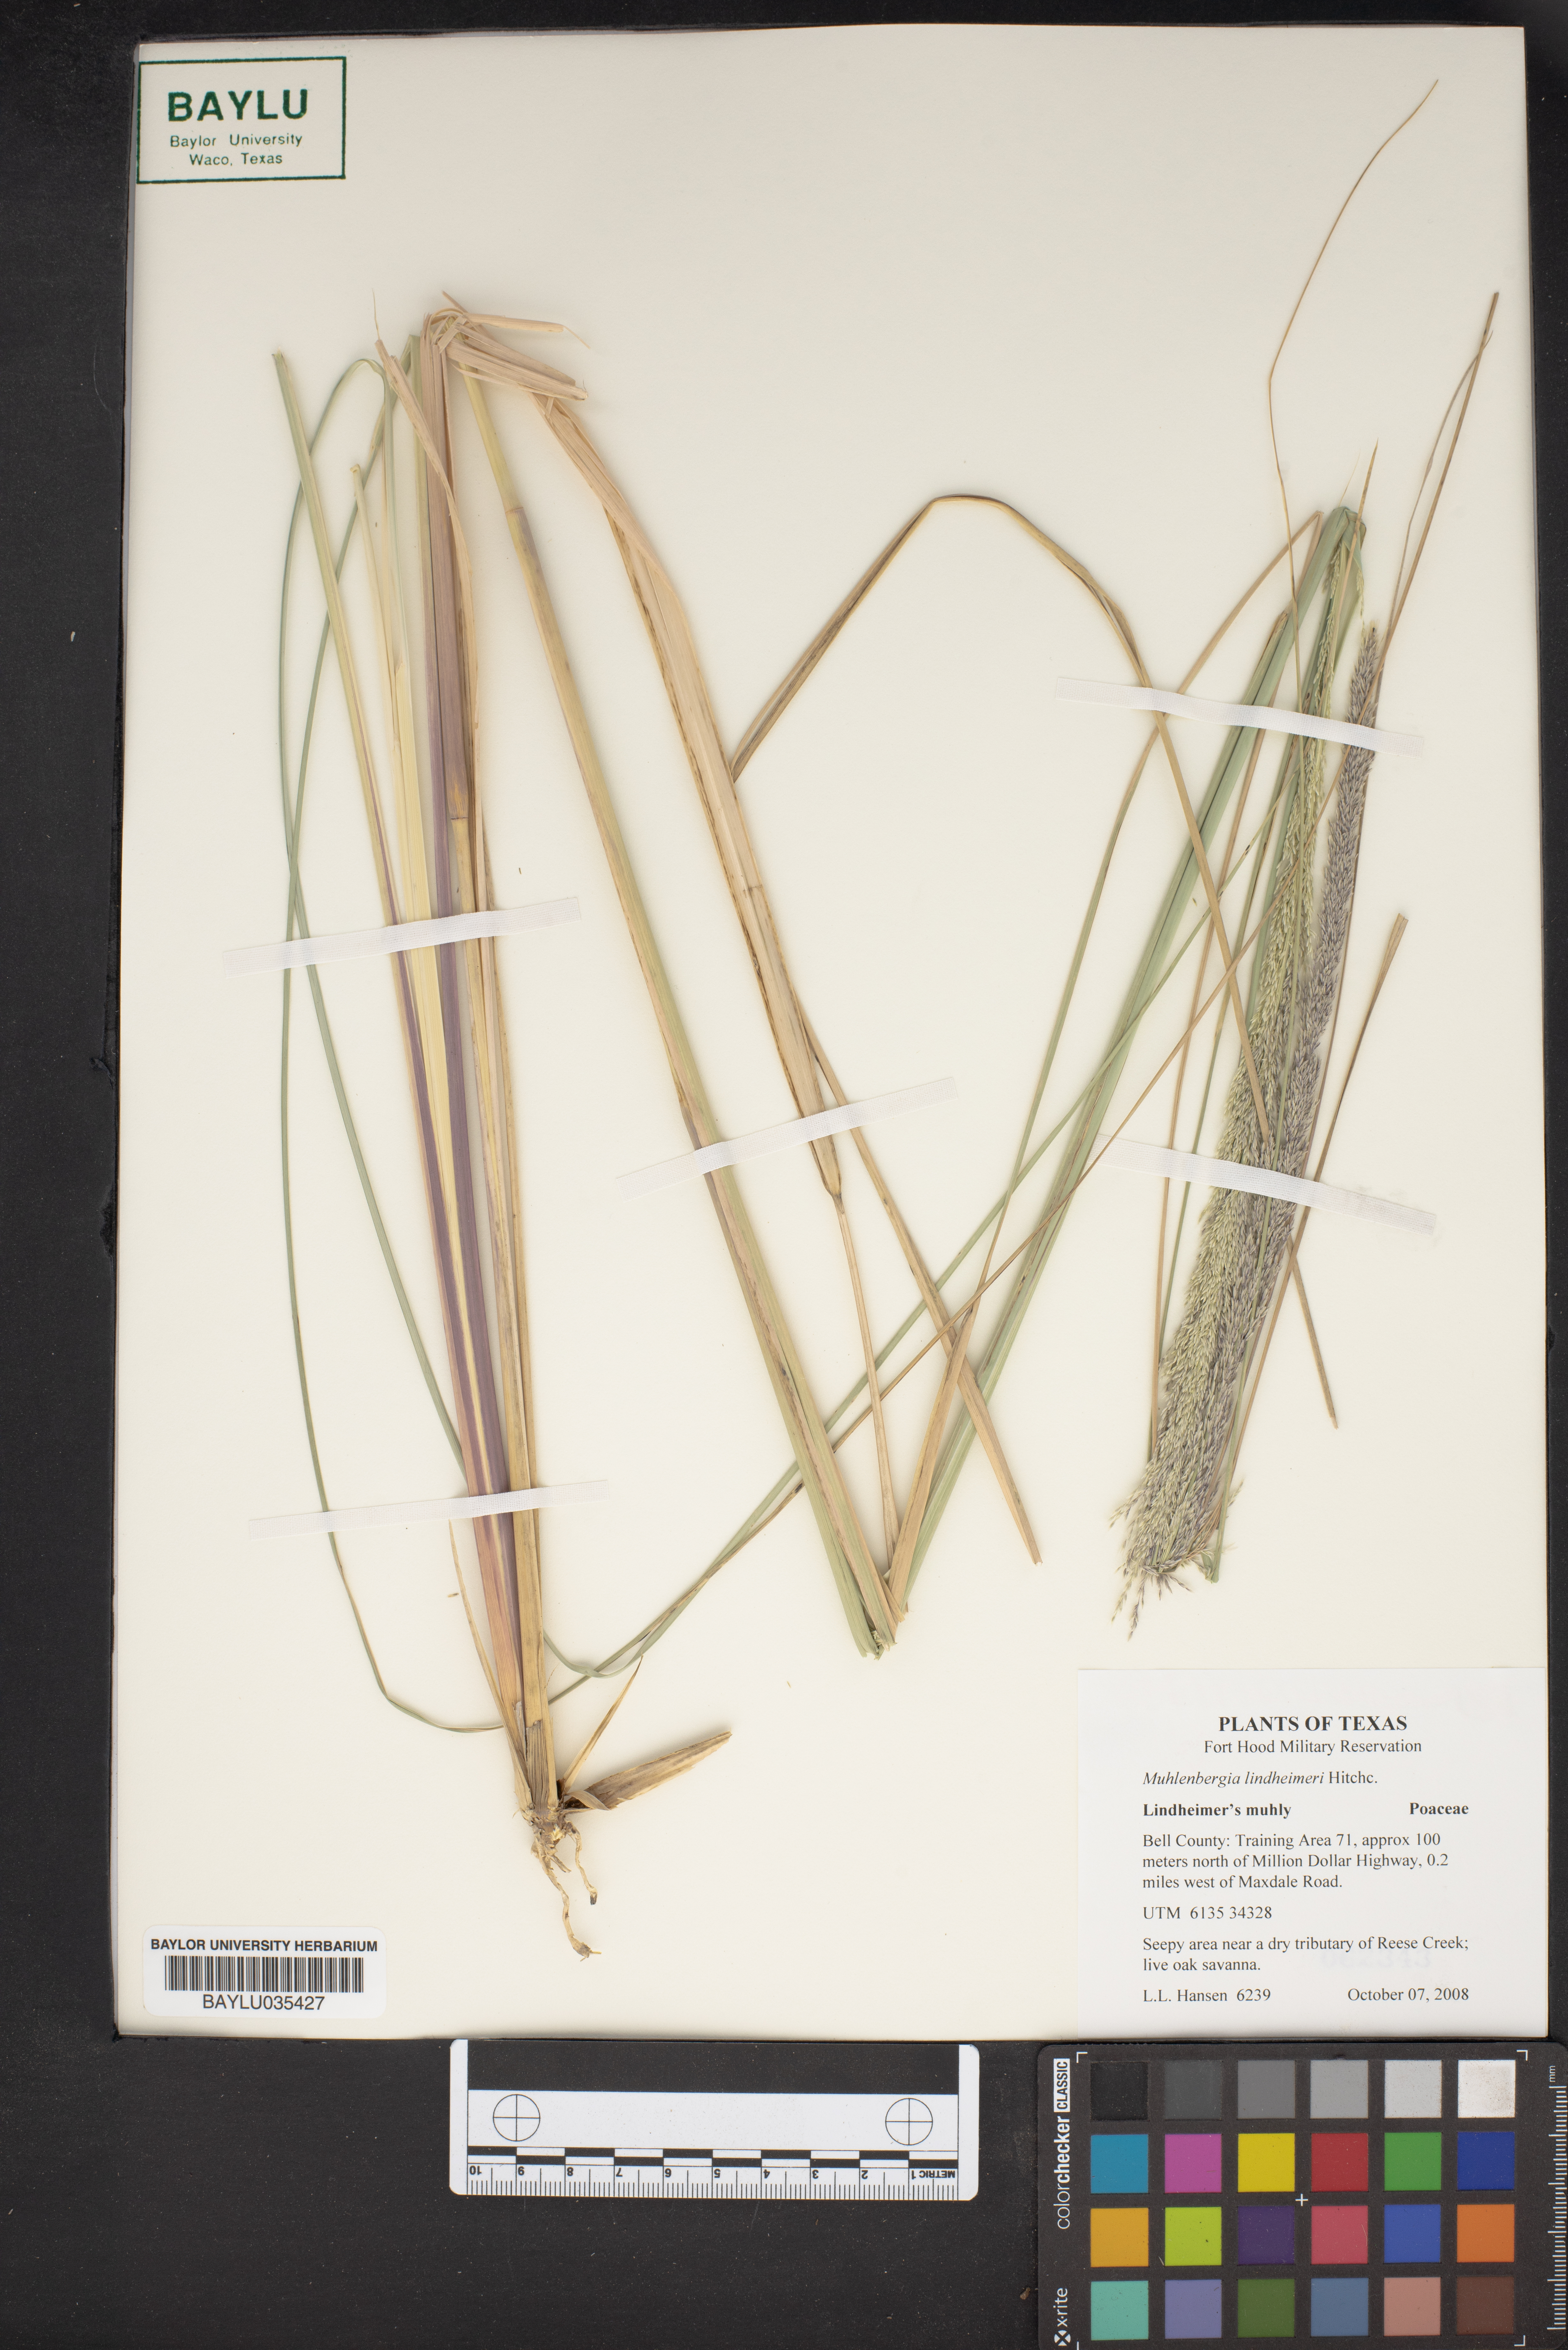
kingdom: Plantae
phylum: Tracheophyta
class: Liliopsida
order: Poales
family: Poaceae
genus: Muhlenbergia
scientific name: Muhlenbergia lindheimeri
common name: Lindheimer's muhly
